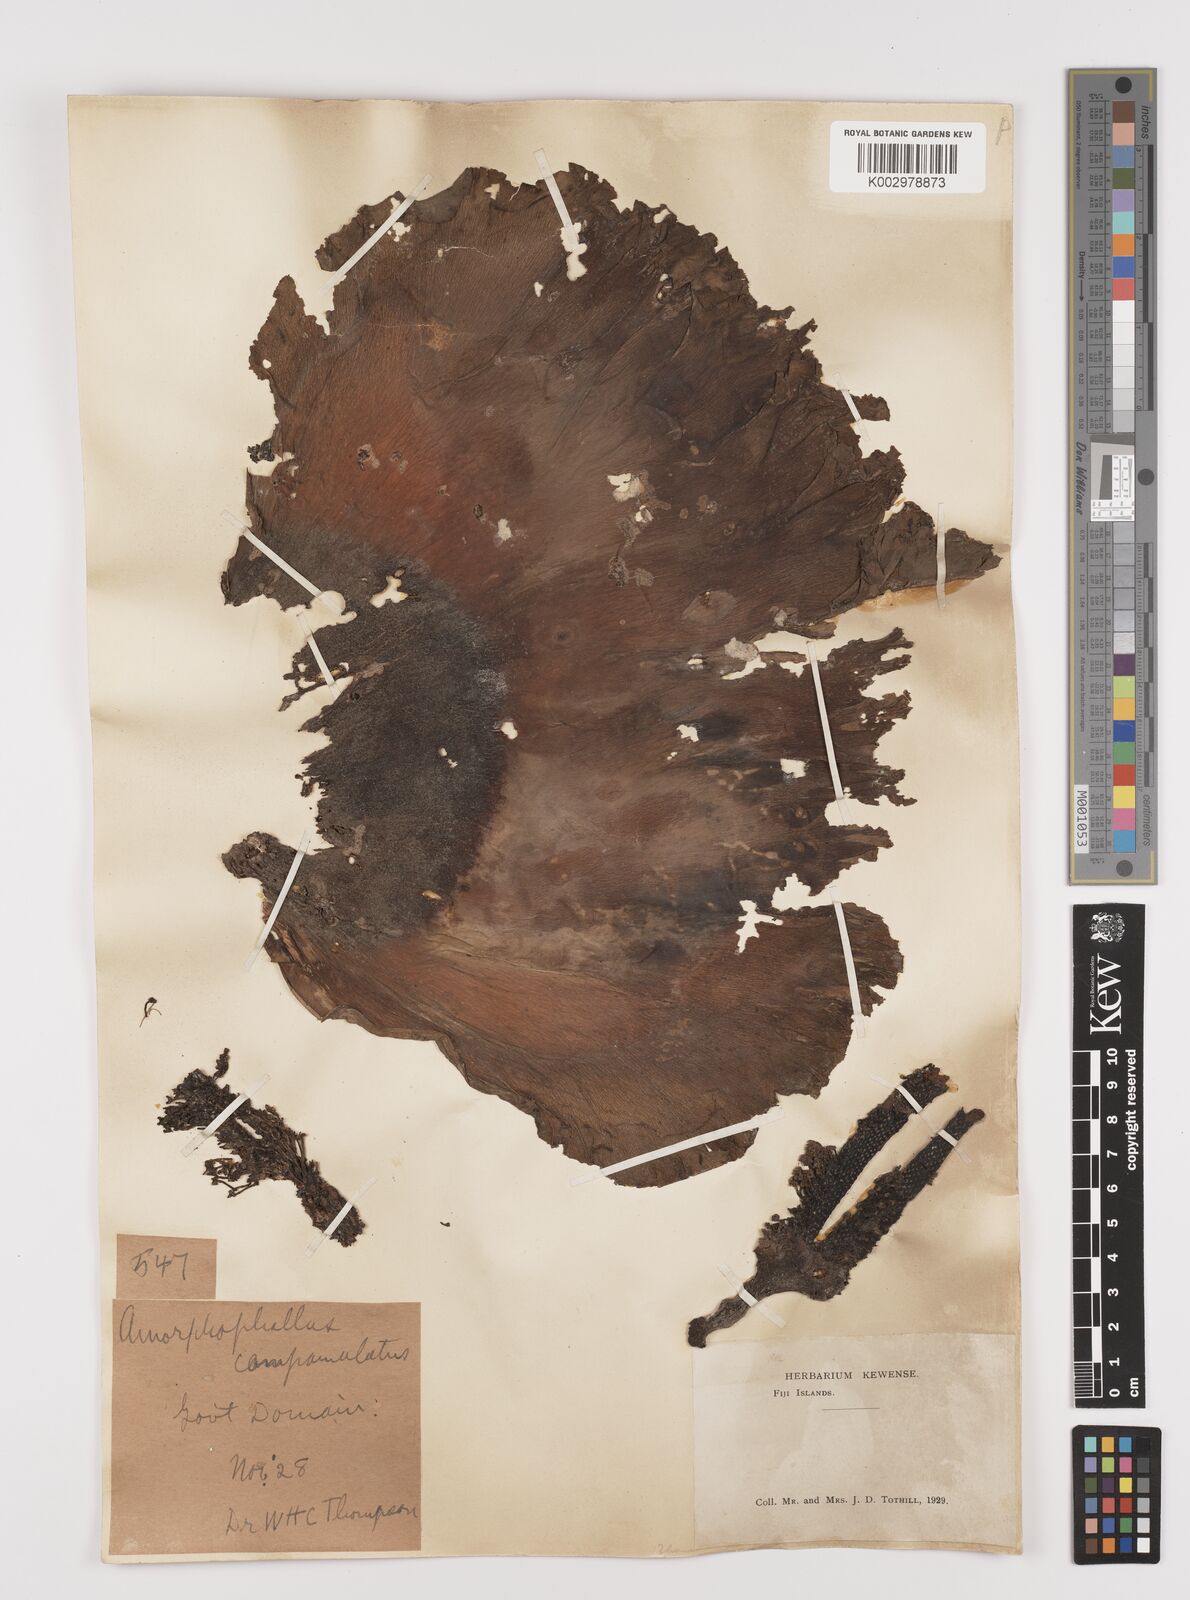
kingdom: Plantae
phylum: Tracheophyta
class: Liliopsida
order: Alismatales
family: Araceae
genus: Amorphophallus
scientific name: Amorphophallus paeoniifolius
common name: Telinga-potato
